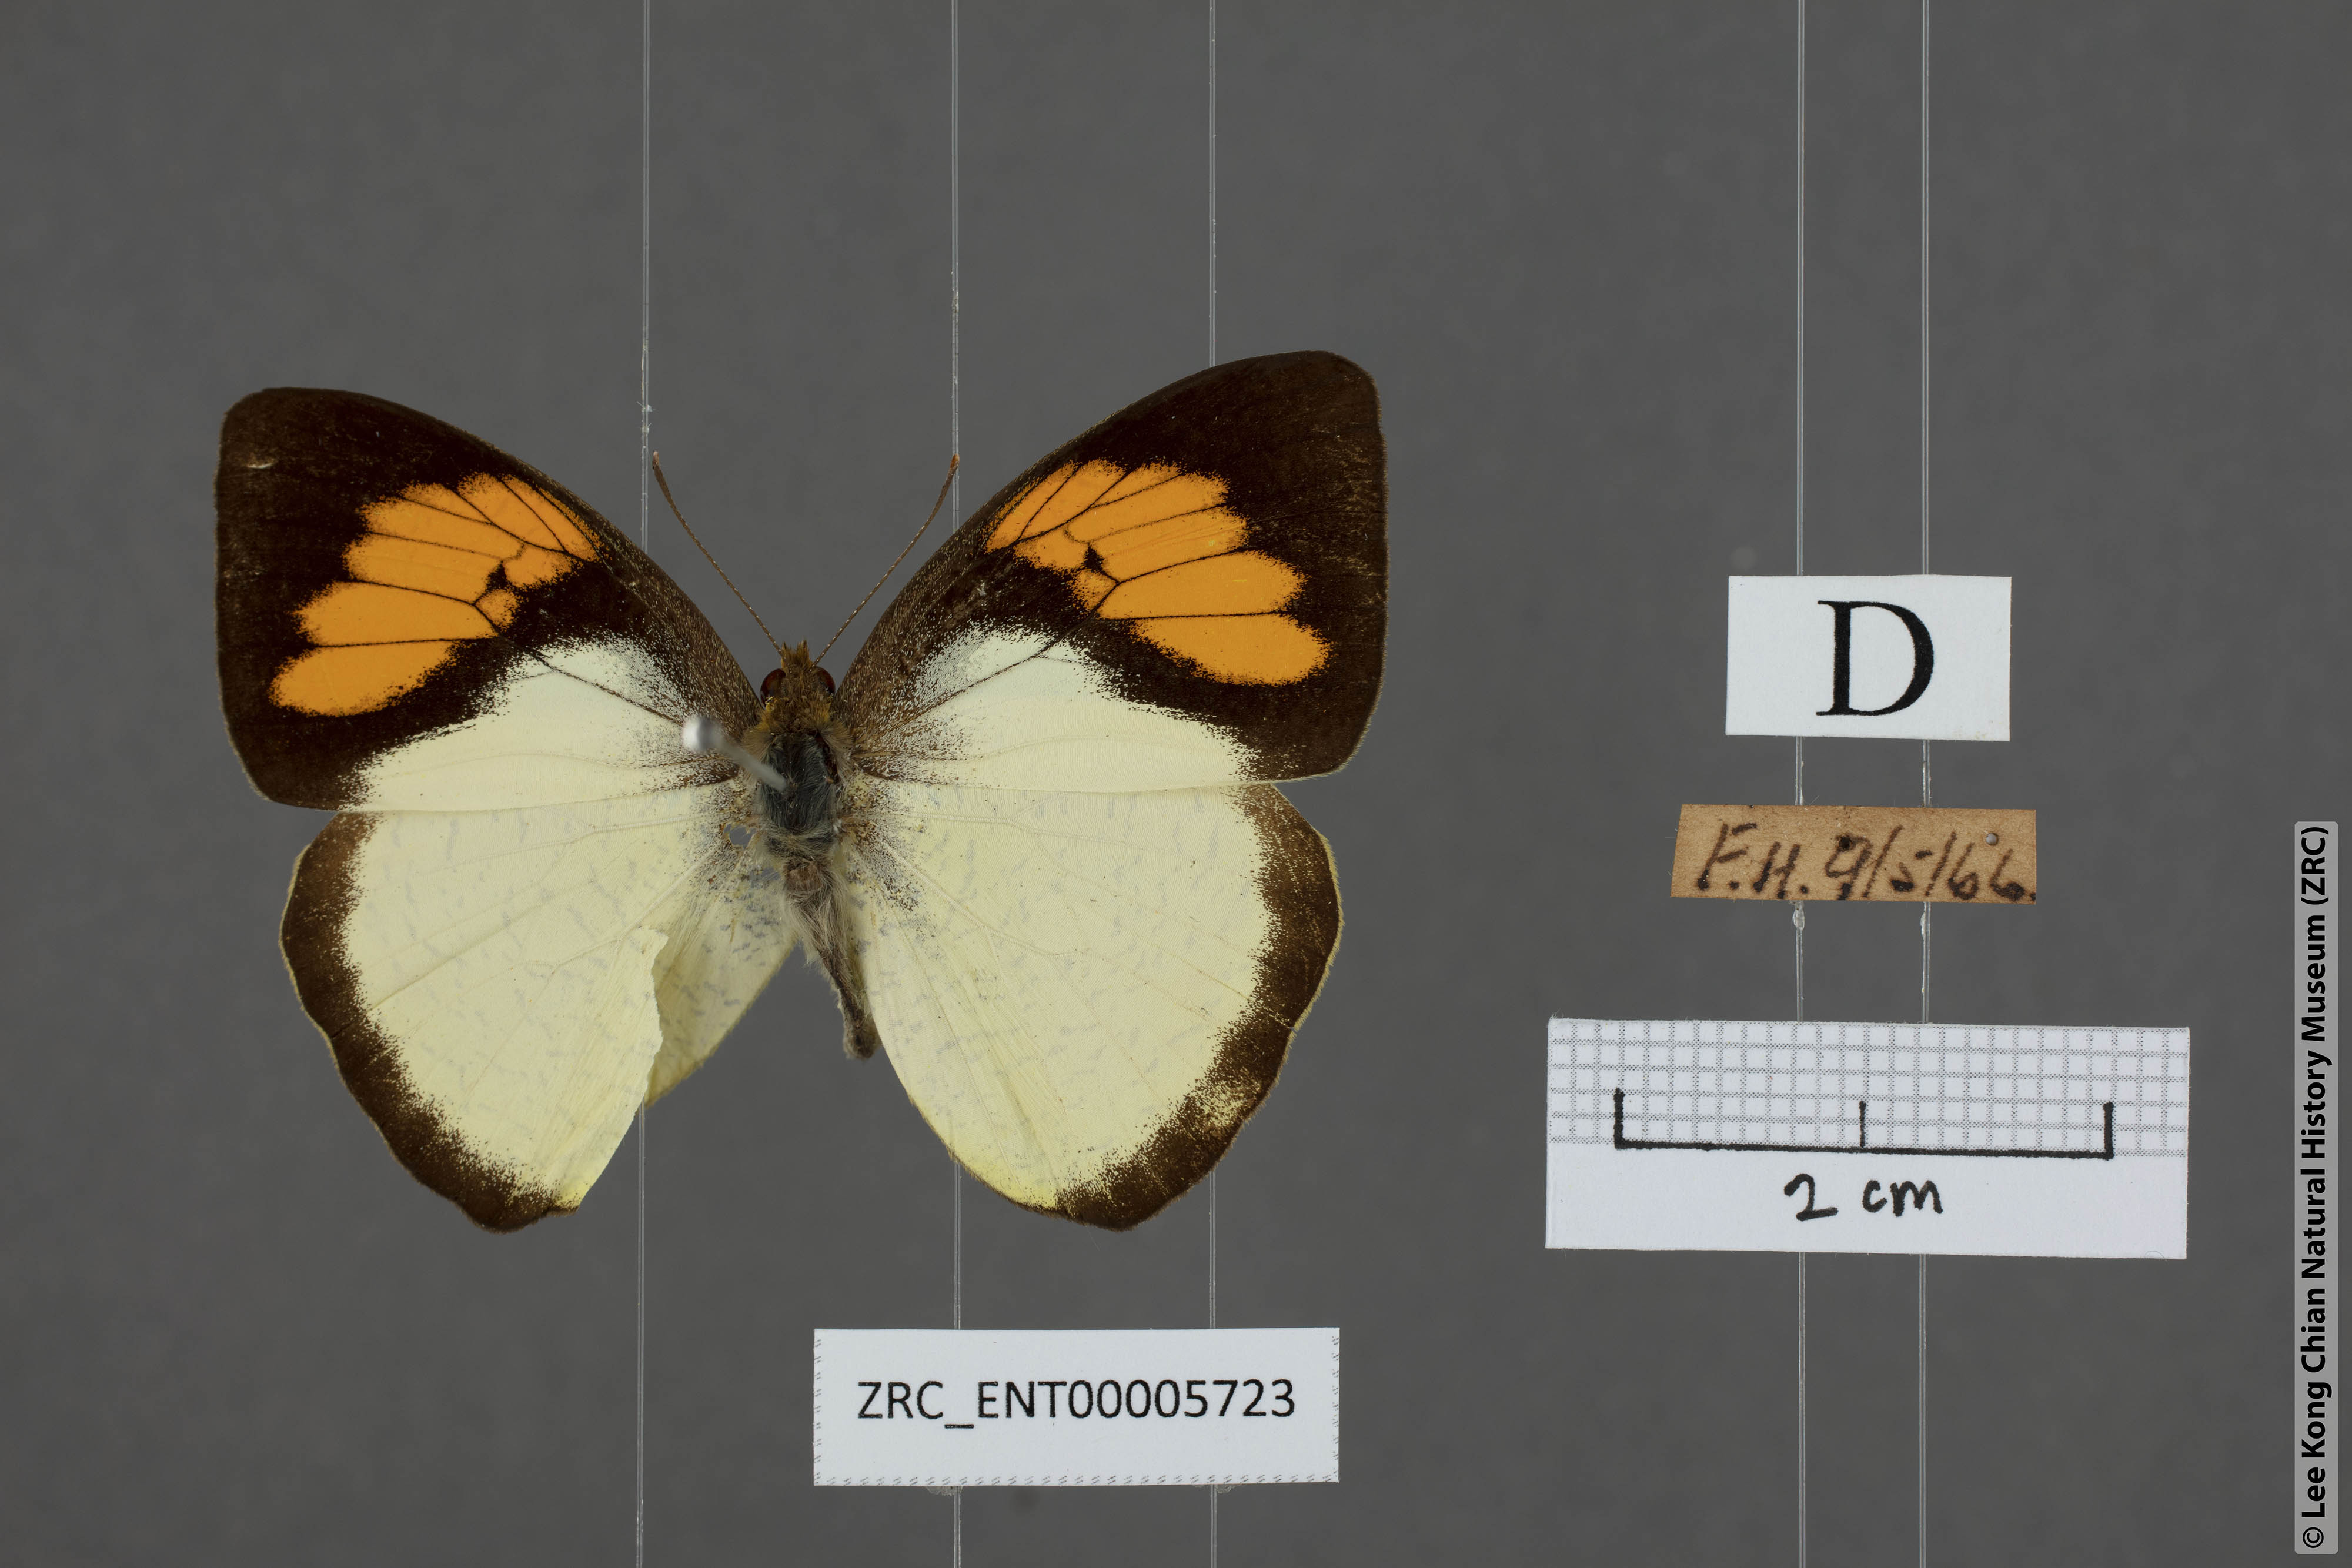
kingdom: Animalia
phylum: Arthropoda
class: Insecta
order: Lepidoptera
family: Pieridae
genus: Ixias
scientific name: Ixias pyrene
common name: Yellow orange tip
